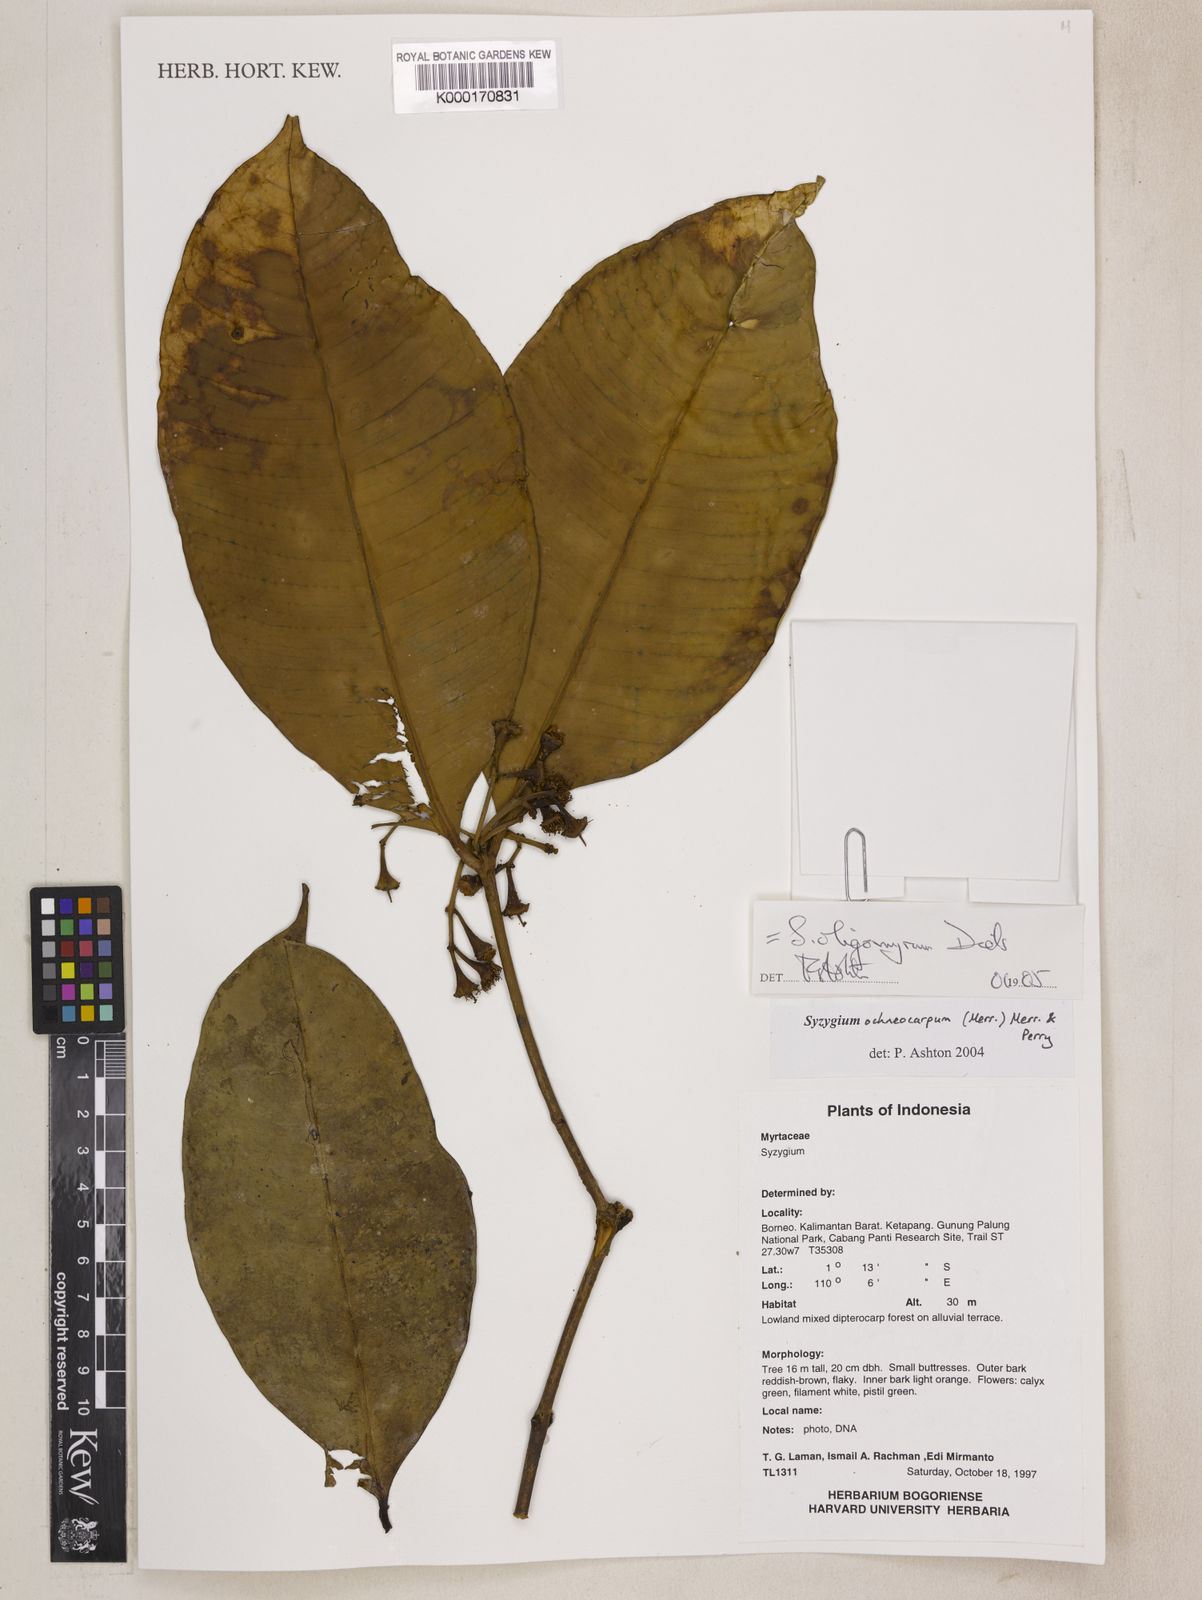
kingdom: Plantae
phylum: Tracheophyta
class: Magnoliopsida
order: Myrtales
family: Myrtaceae
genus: Syzygium
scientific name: Syzygium oligomyrum
